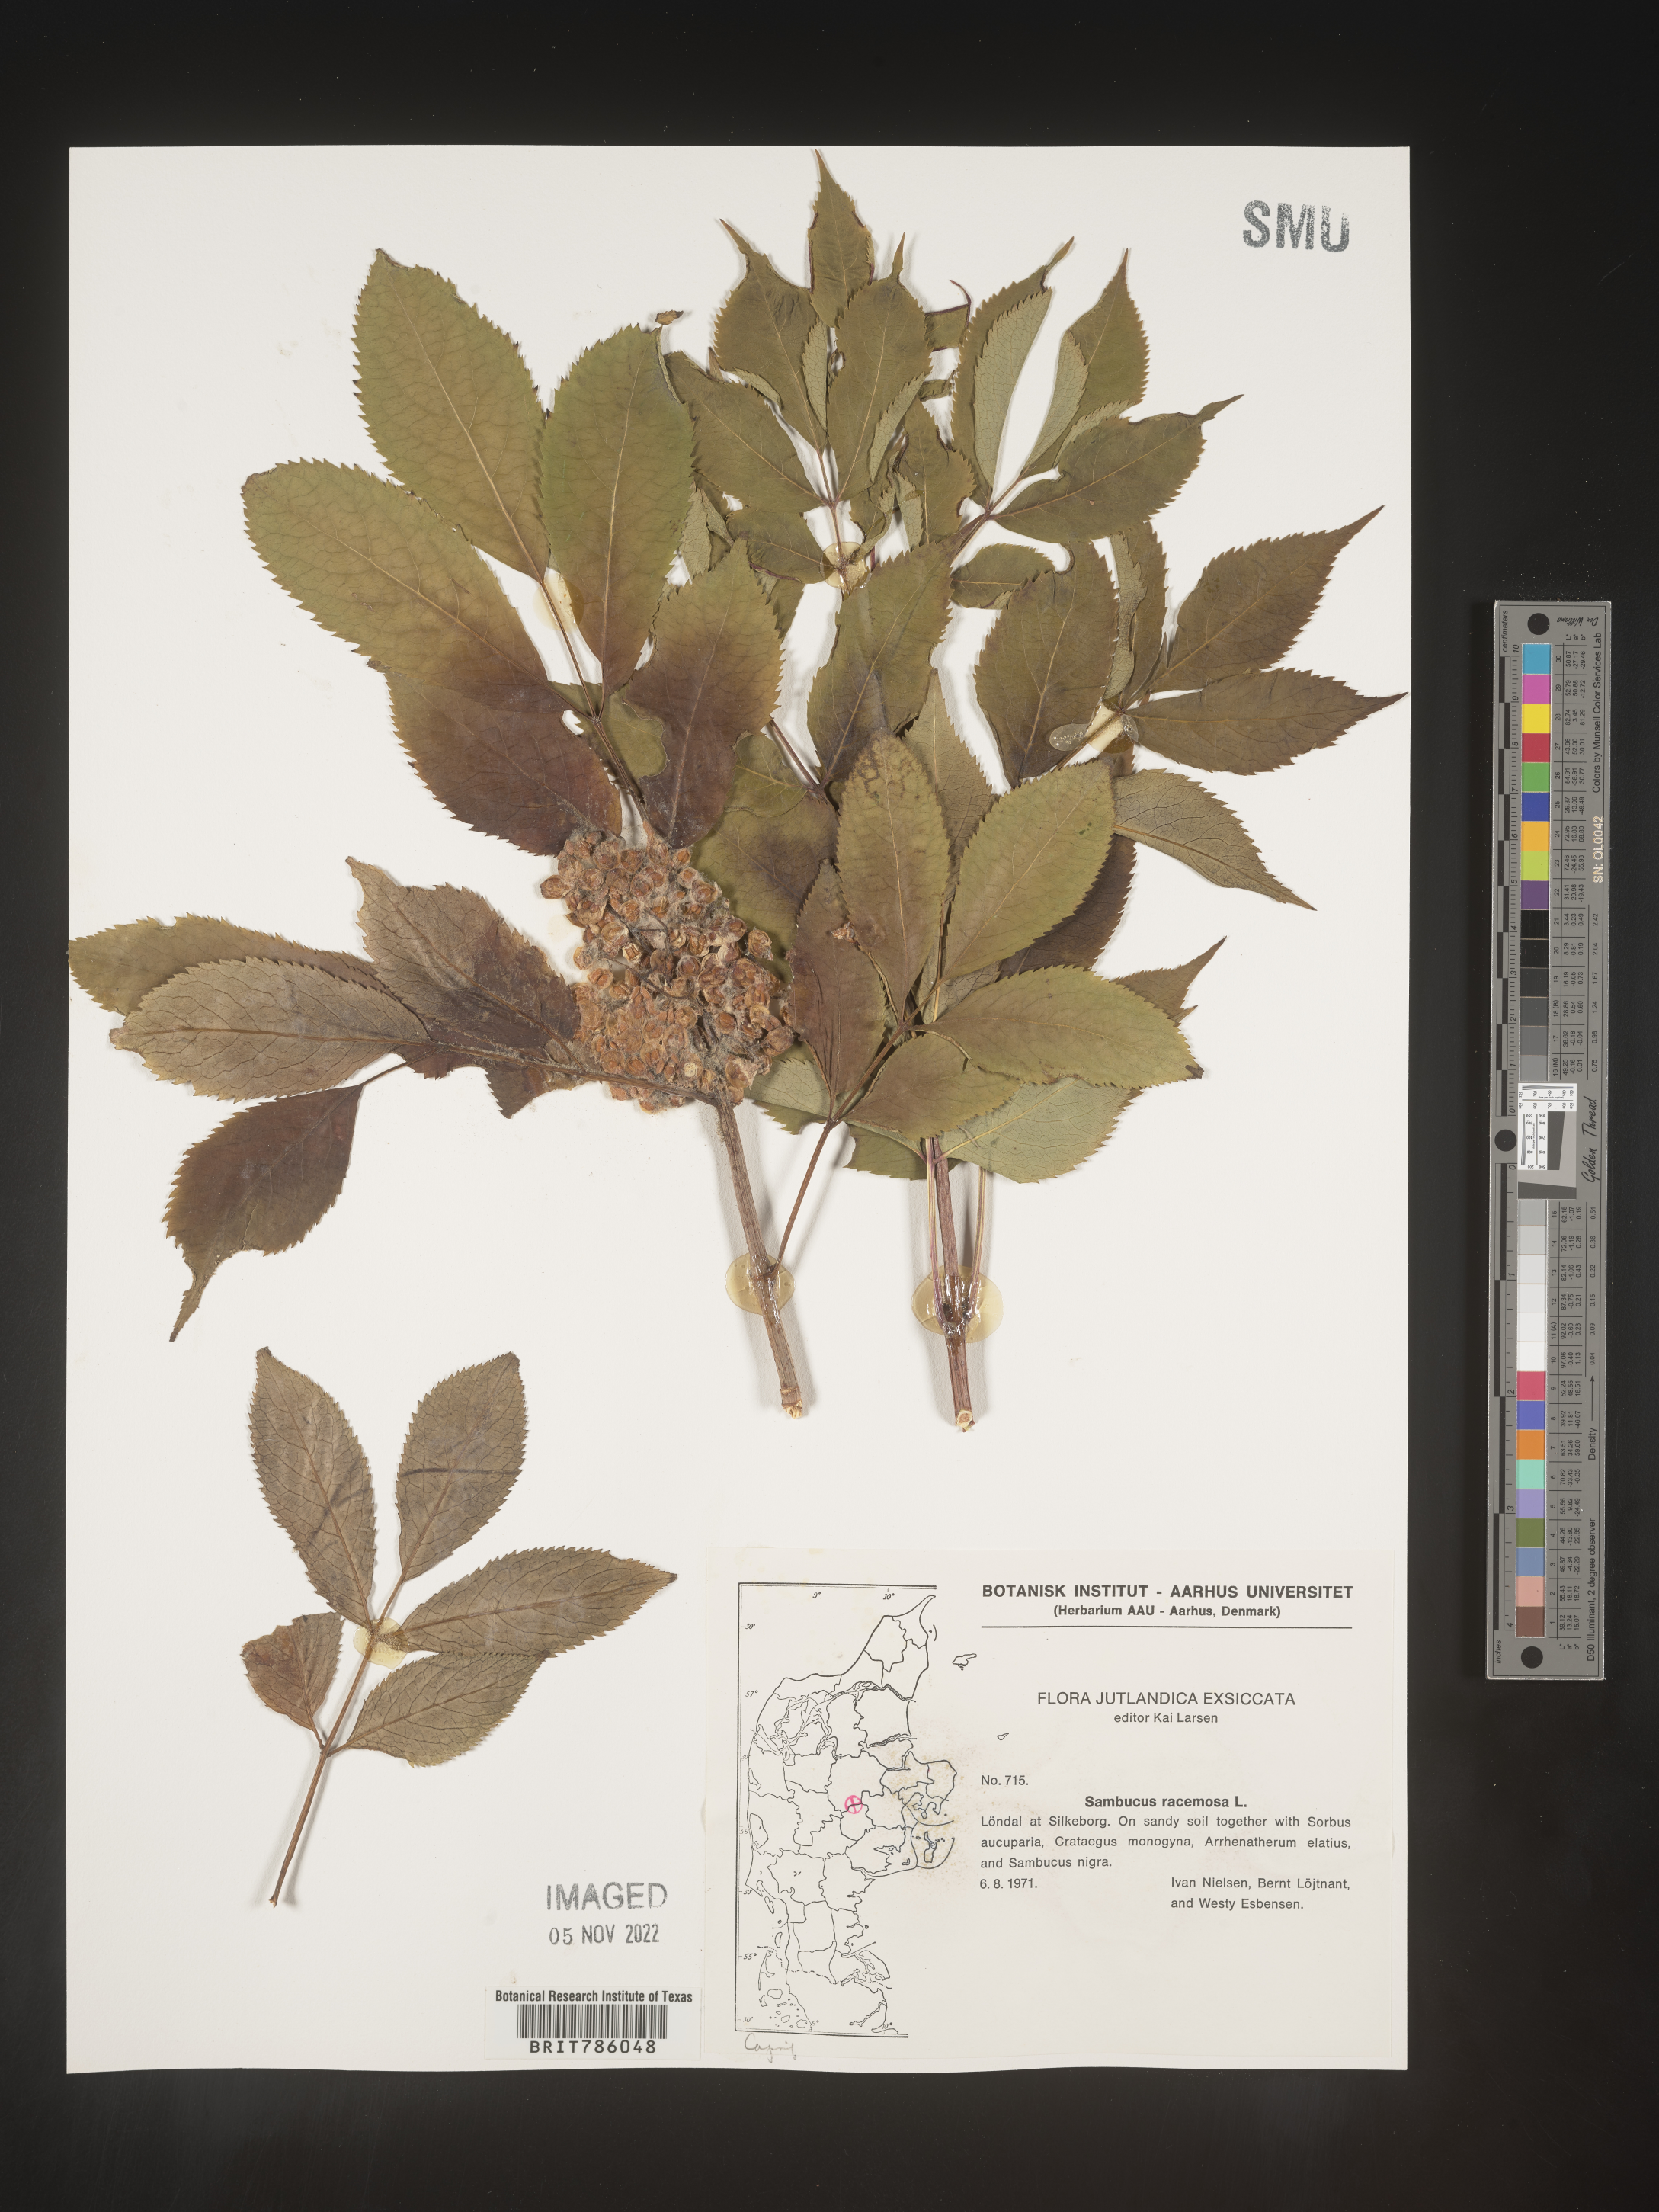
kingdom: Plantae
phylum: Tracheophyta
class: Magnoliopsida
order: Dipsacales
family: Viburnaceae
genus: Sambucus
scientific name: Sambucus
